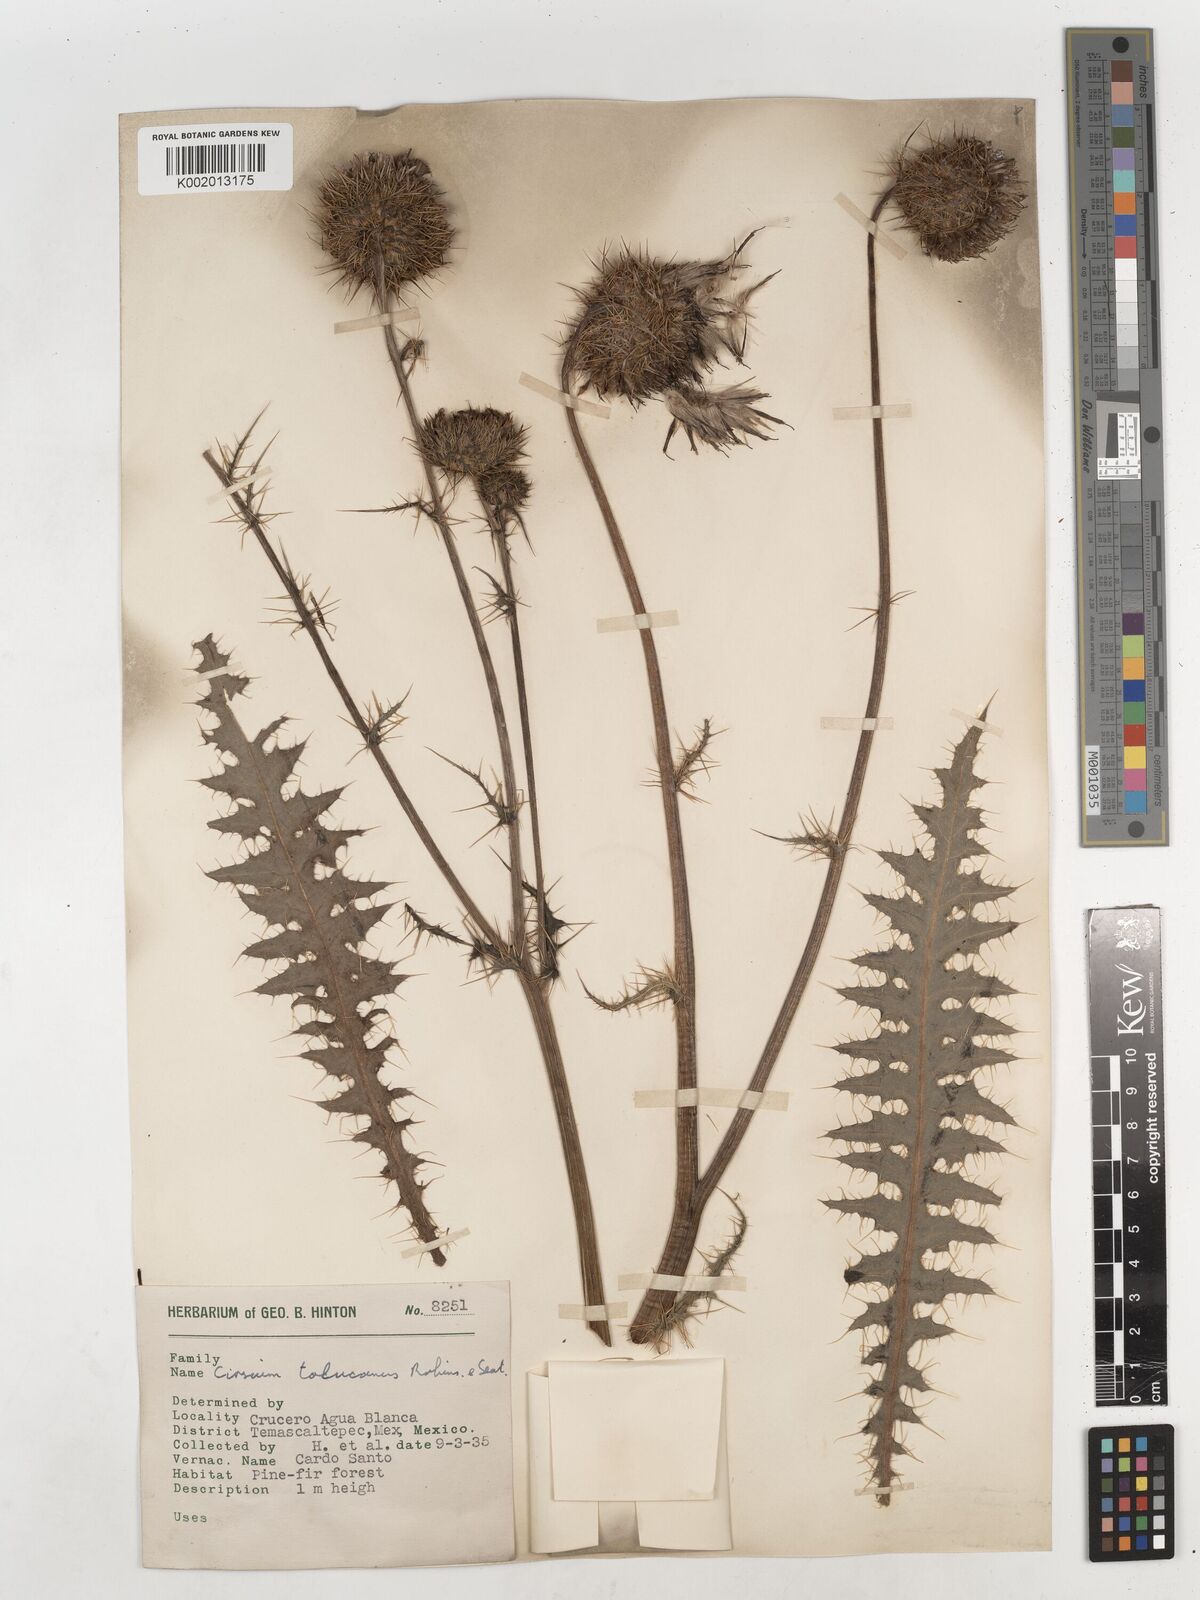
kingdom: Plantae
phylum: Tracheophyta
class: Magnoliopsida
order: Asterales
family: Asteraceae
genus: Cirsium
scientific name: Cirsium tolucanum
